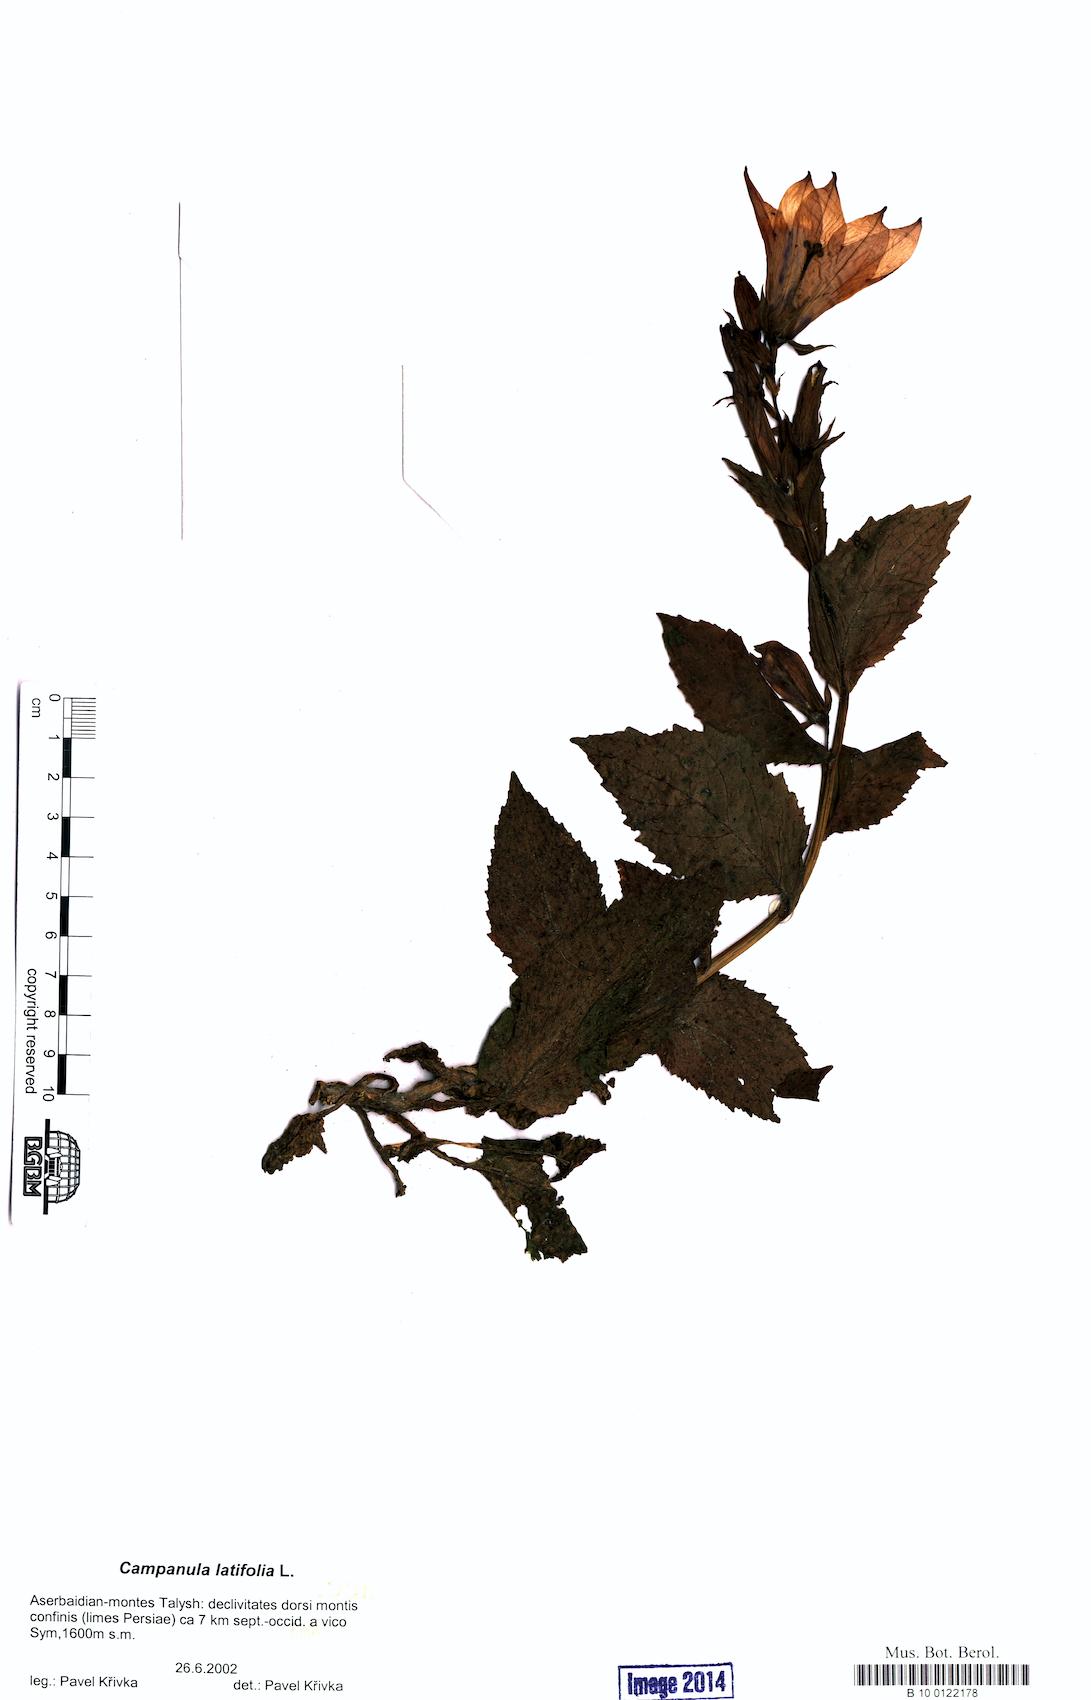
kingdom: Plantae
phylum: Tracheophyta
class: Magnoliopsida
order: Asterales
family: Campanulaceae
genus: Campanula
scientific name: Campanula latifolia
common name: Giant bellflower
